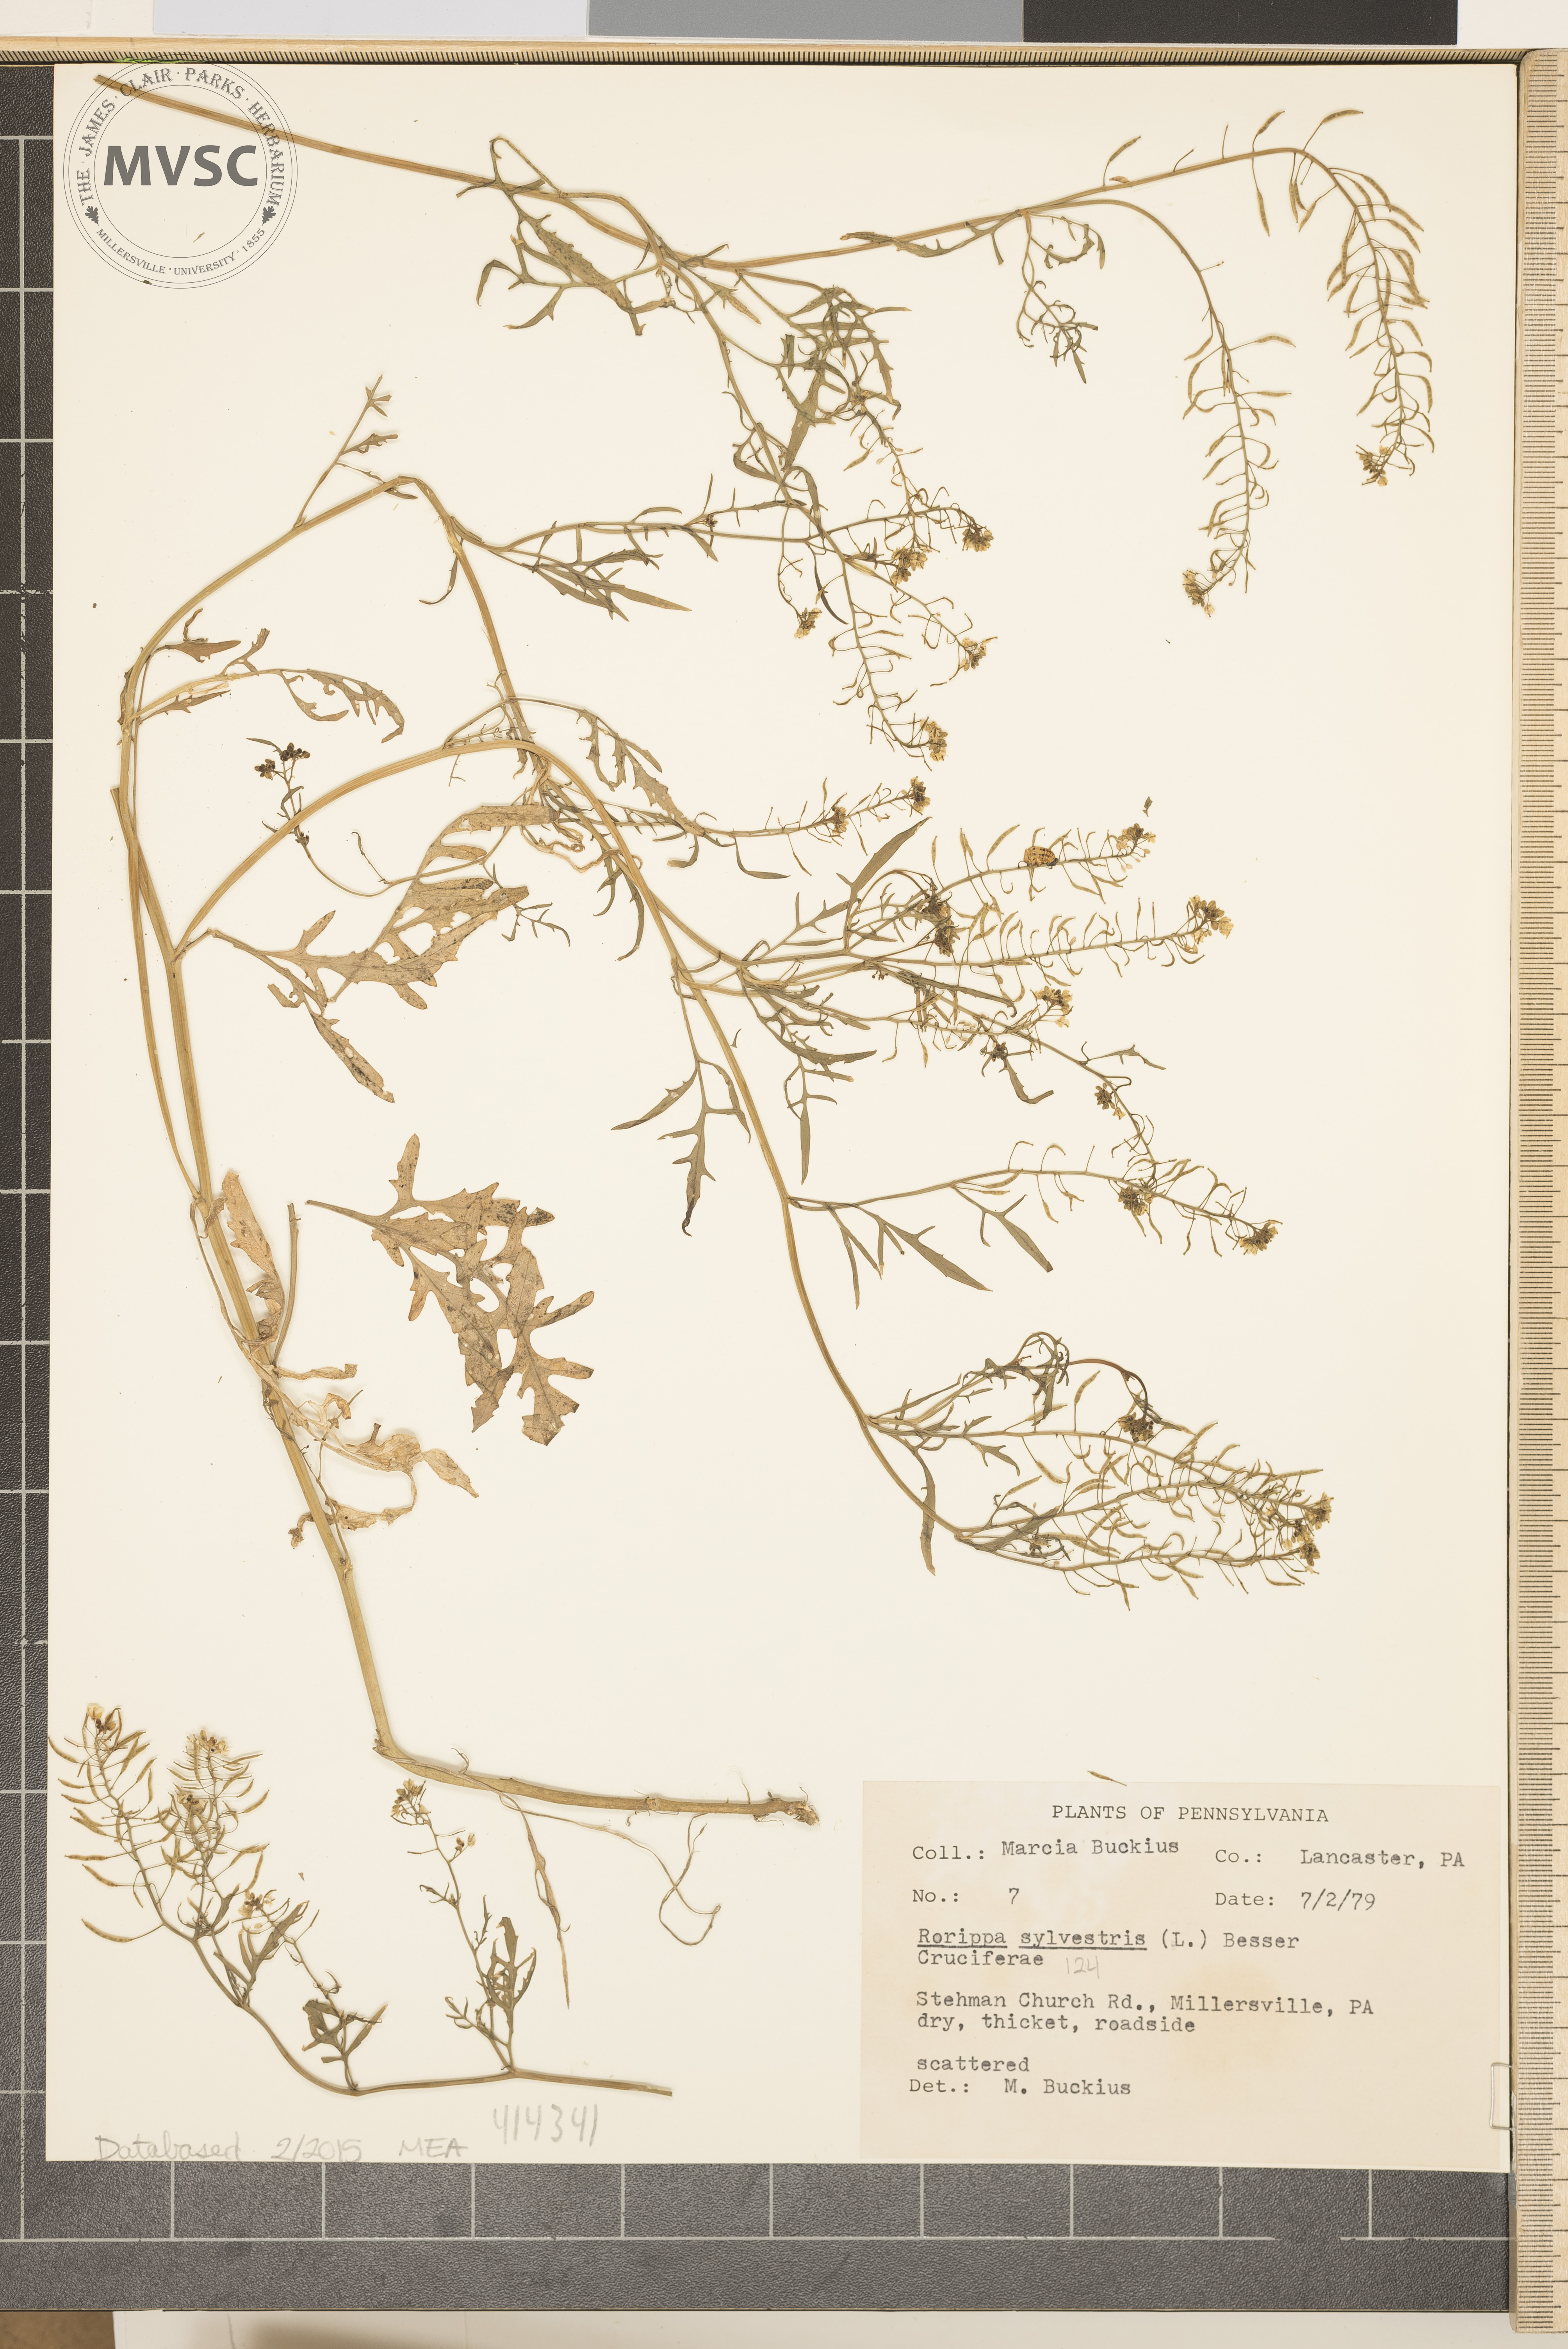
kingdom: Plantae
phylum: Tracheophyta
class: Magnoliopsida
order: Brassicales
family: Brassicaceae
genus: Rorippa
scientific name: Rorippa sylvestris
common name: Creeping Yellowcress
